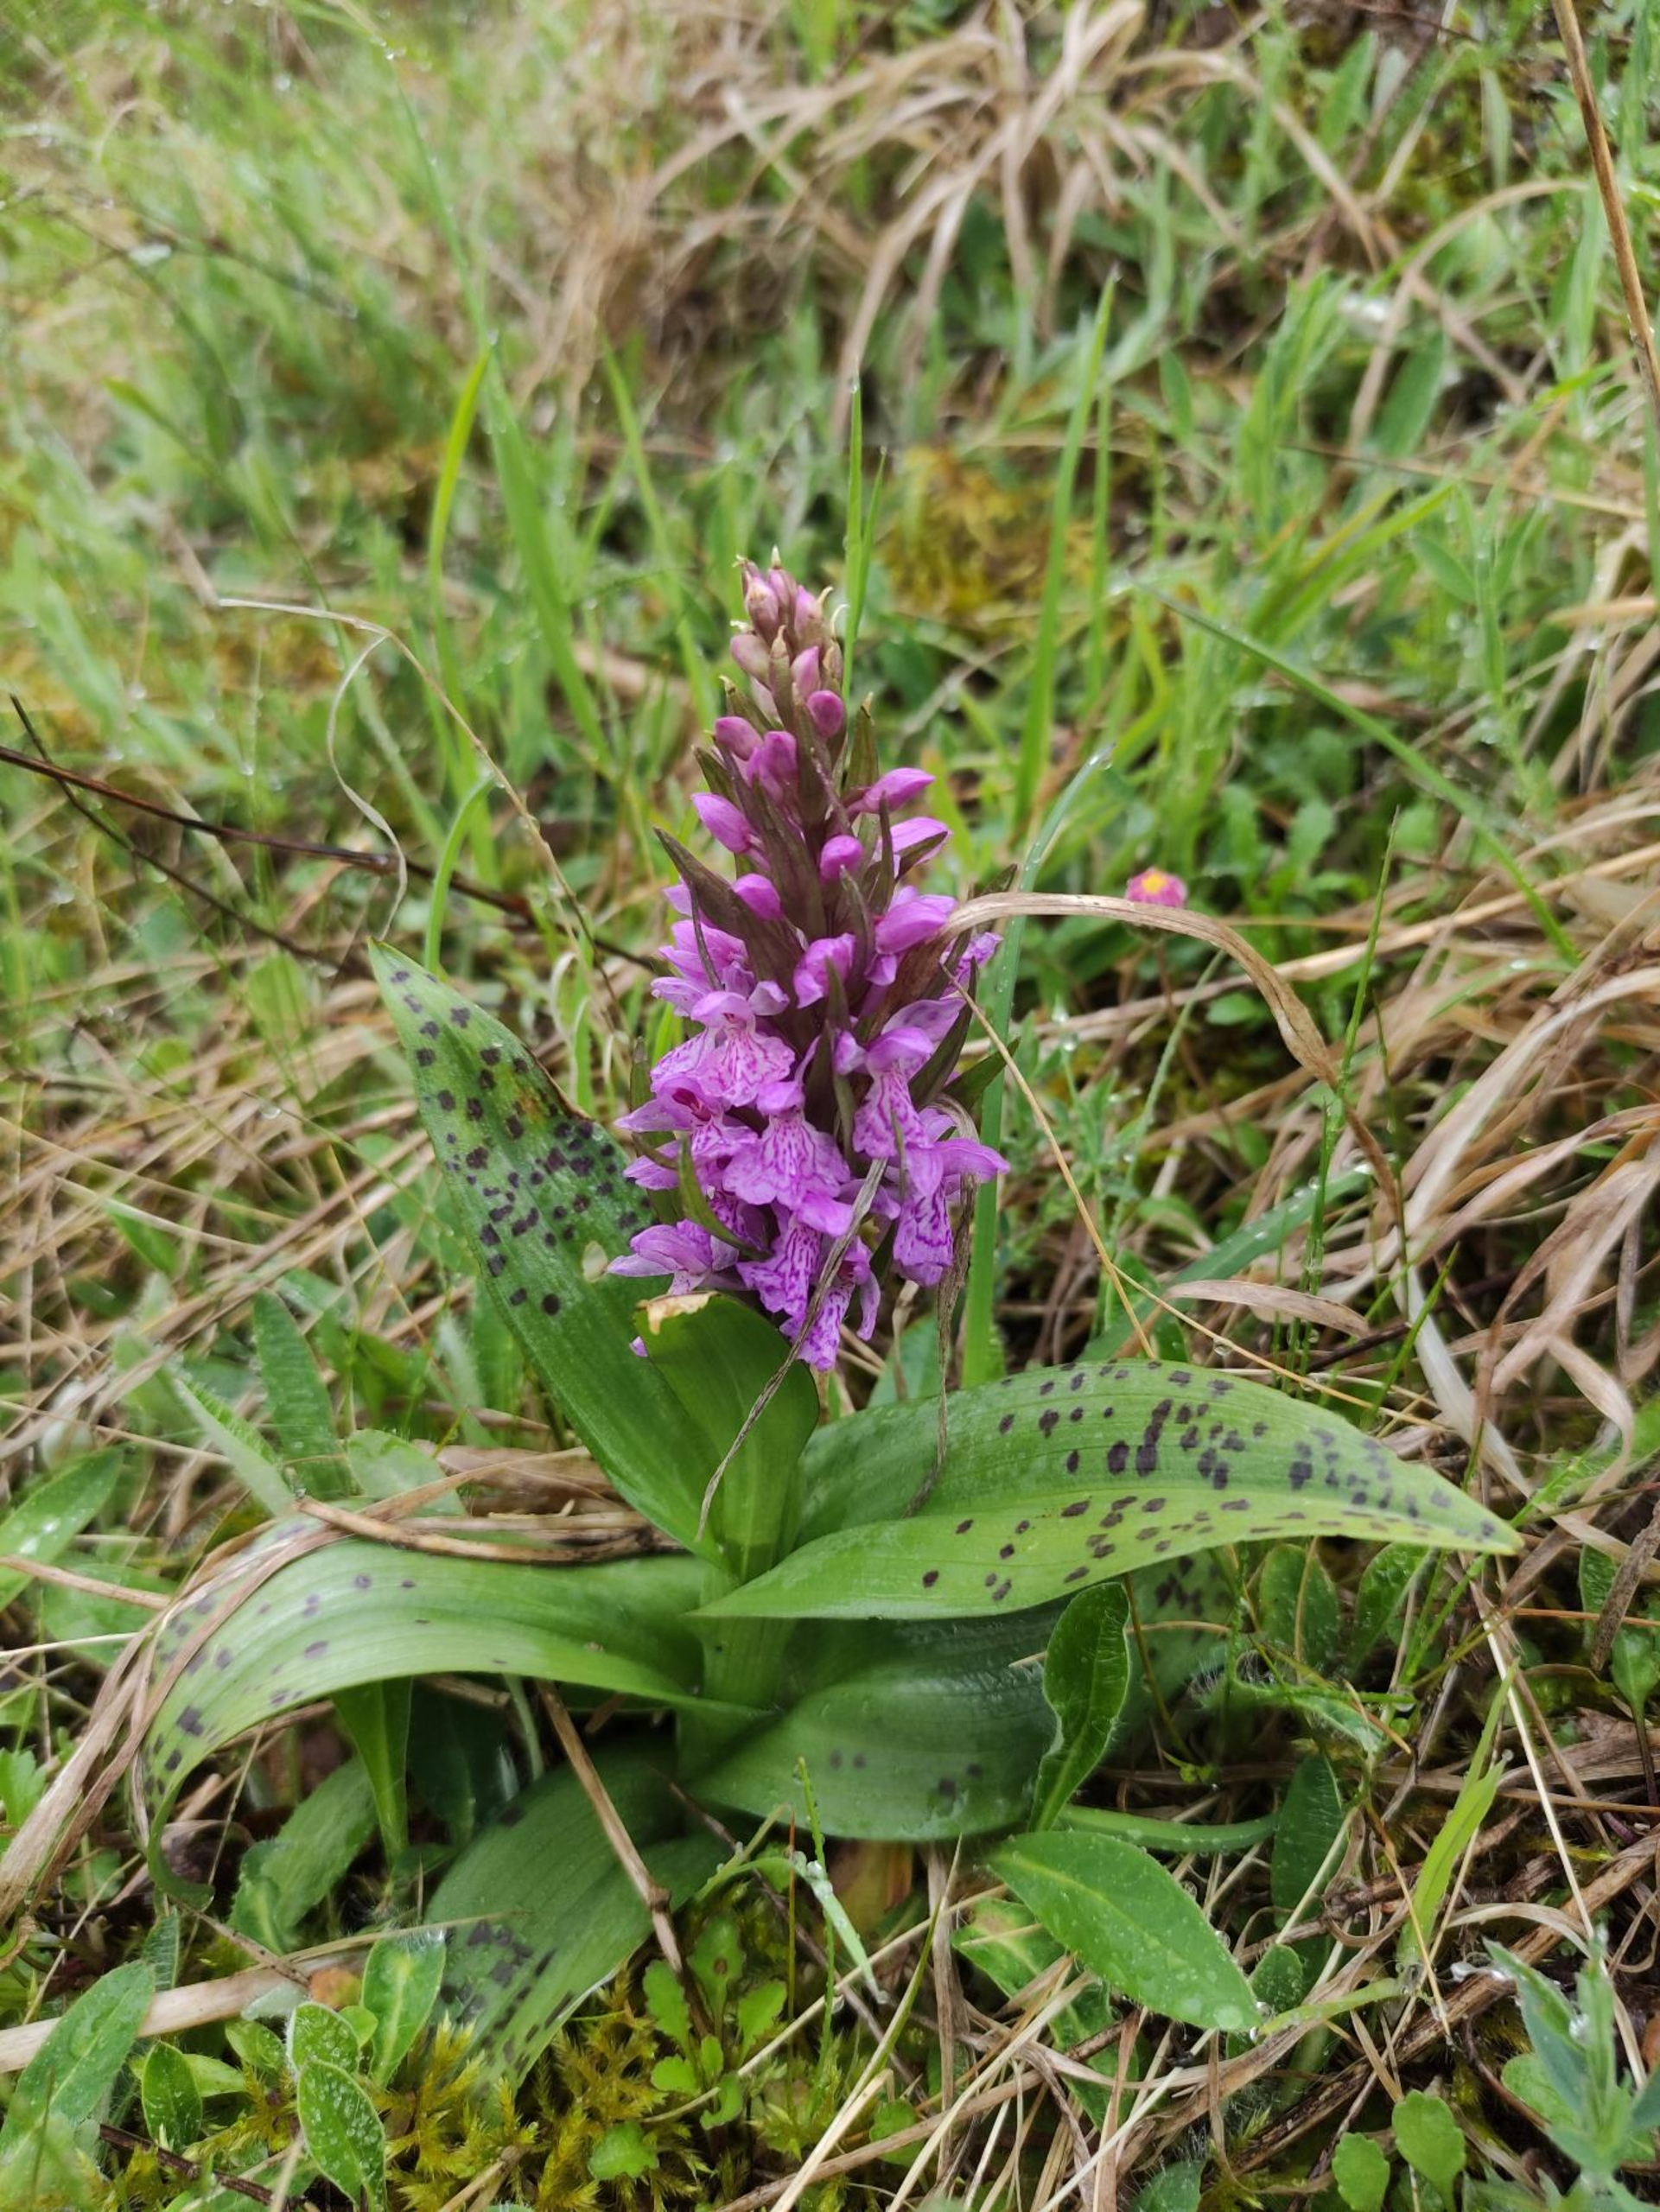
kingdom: Plantae
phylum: Tracheophyta
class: Liliopsida
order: Asparagales
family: Orchidaceae
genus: Dactylorhiza
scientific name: Dactylorhiza majalis
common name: Maj-gøgeurt
